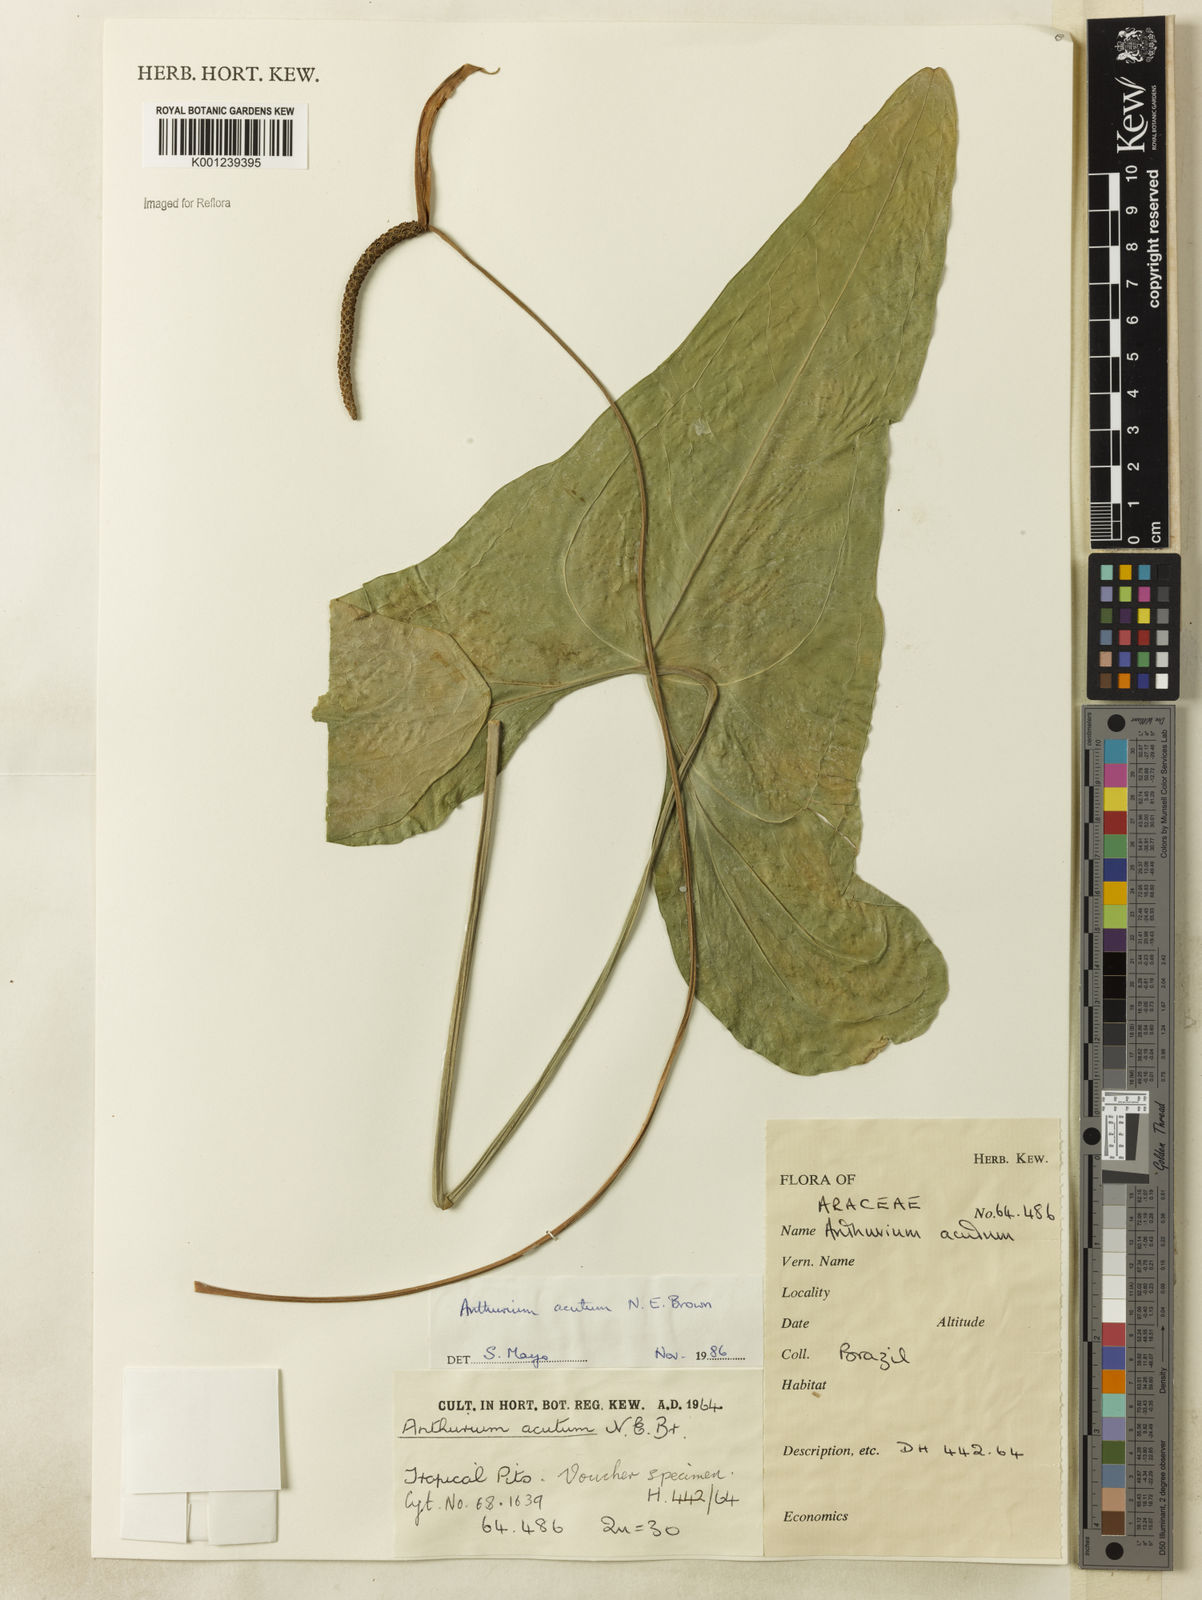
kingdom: Plantae
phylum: Tracheophyta
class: Liliopsida
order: Alismatales
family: Araceae
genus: Anthurium
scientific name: Anthurium acutum
